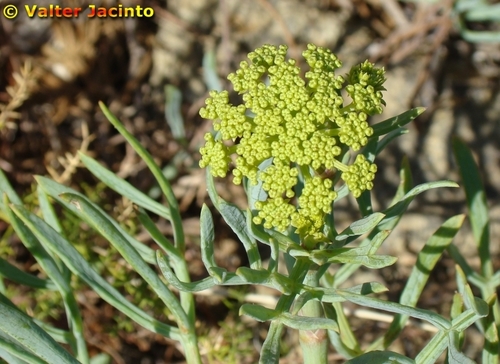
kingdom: Plantae
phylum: Tracheophyta
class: Magnoliopsida
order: Apiales
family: Apiaceae
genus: Crithmum
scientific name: Crithmum maritimum
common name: Rock samphire
